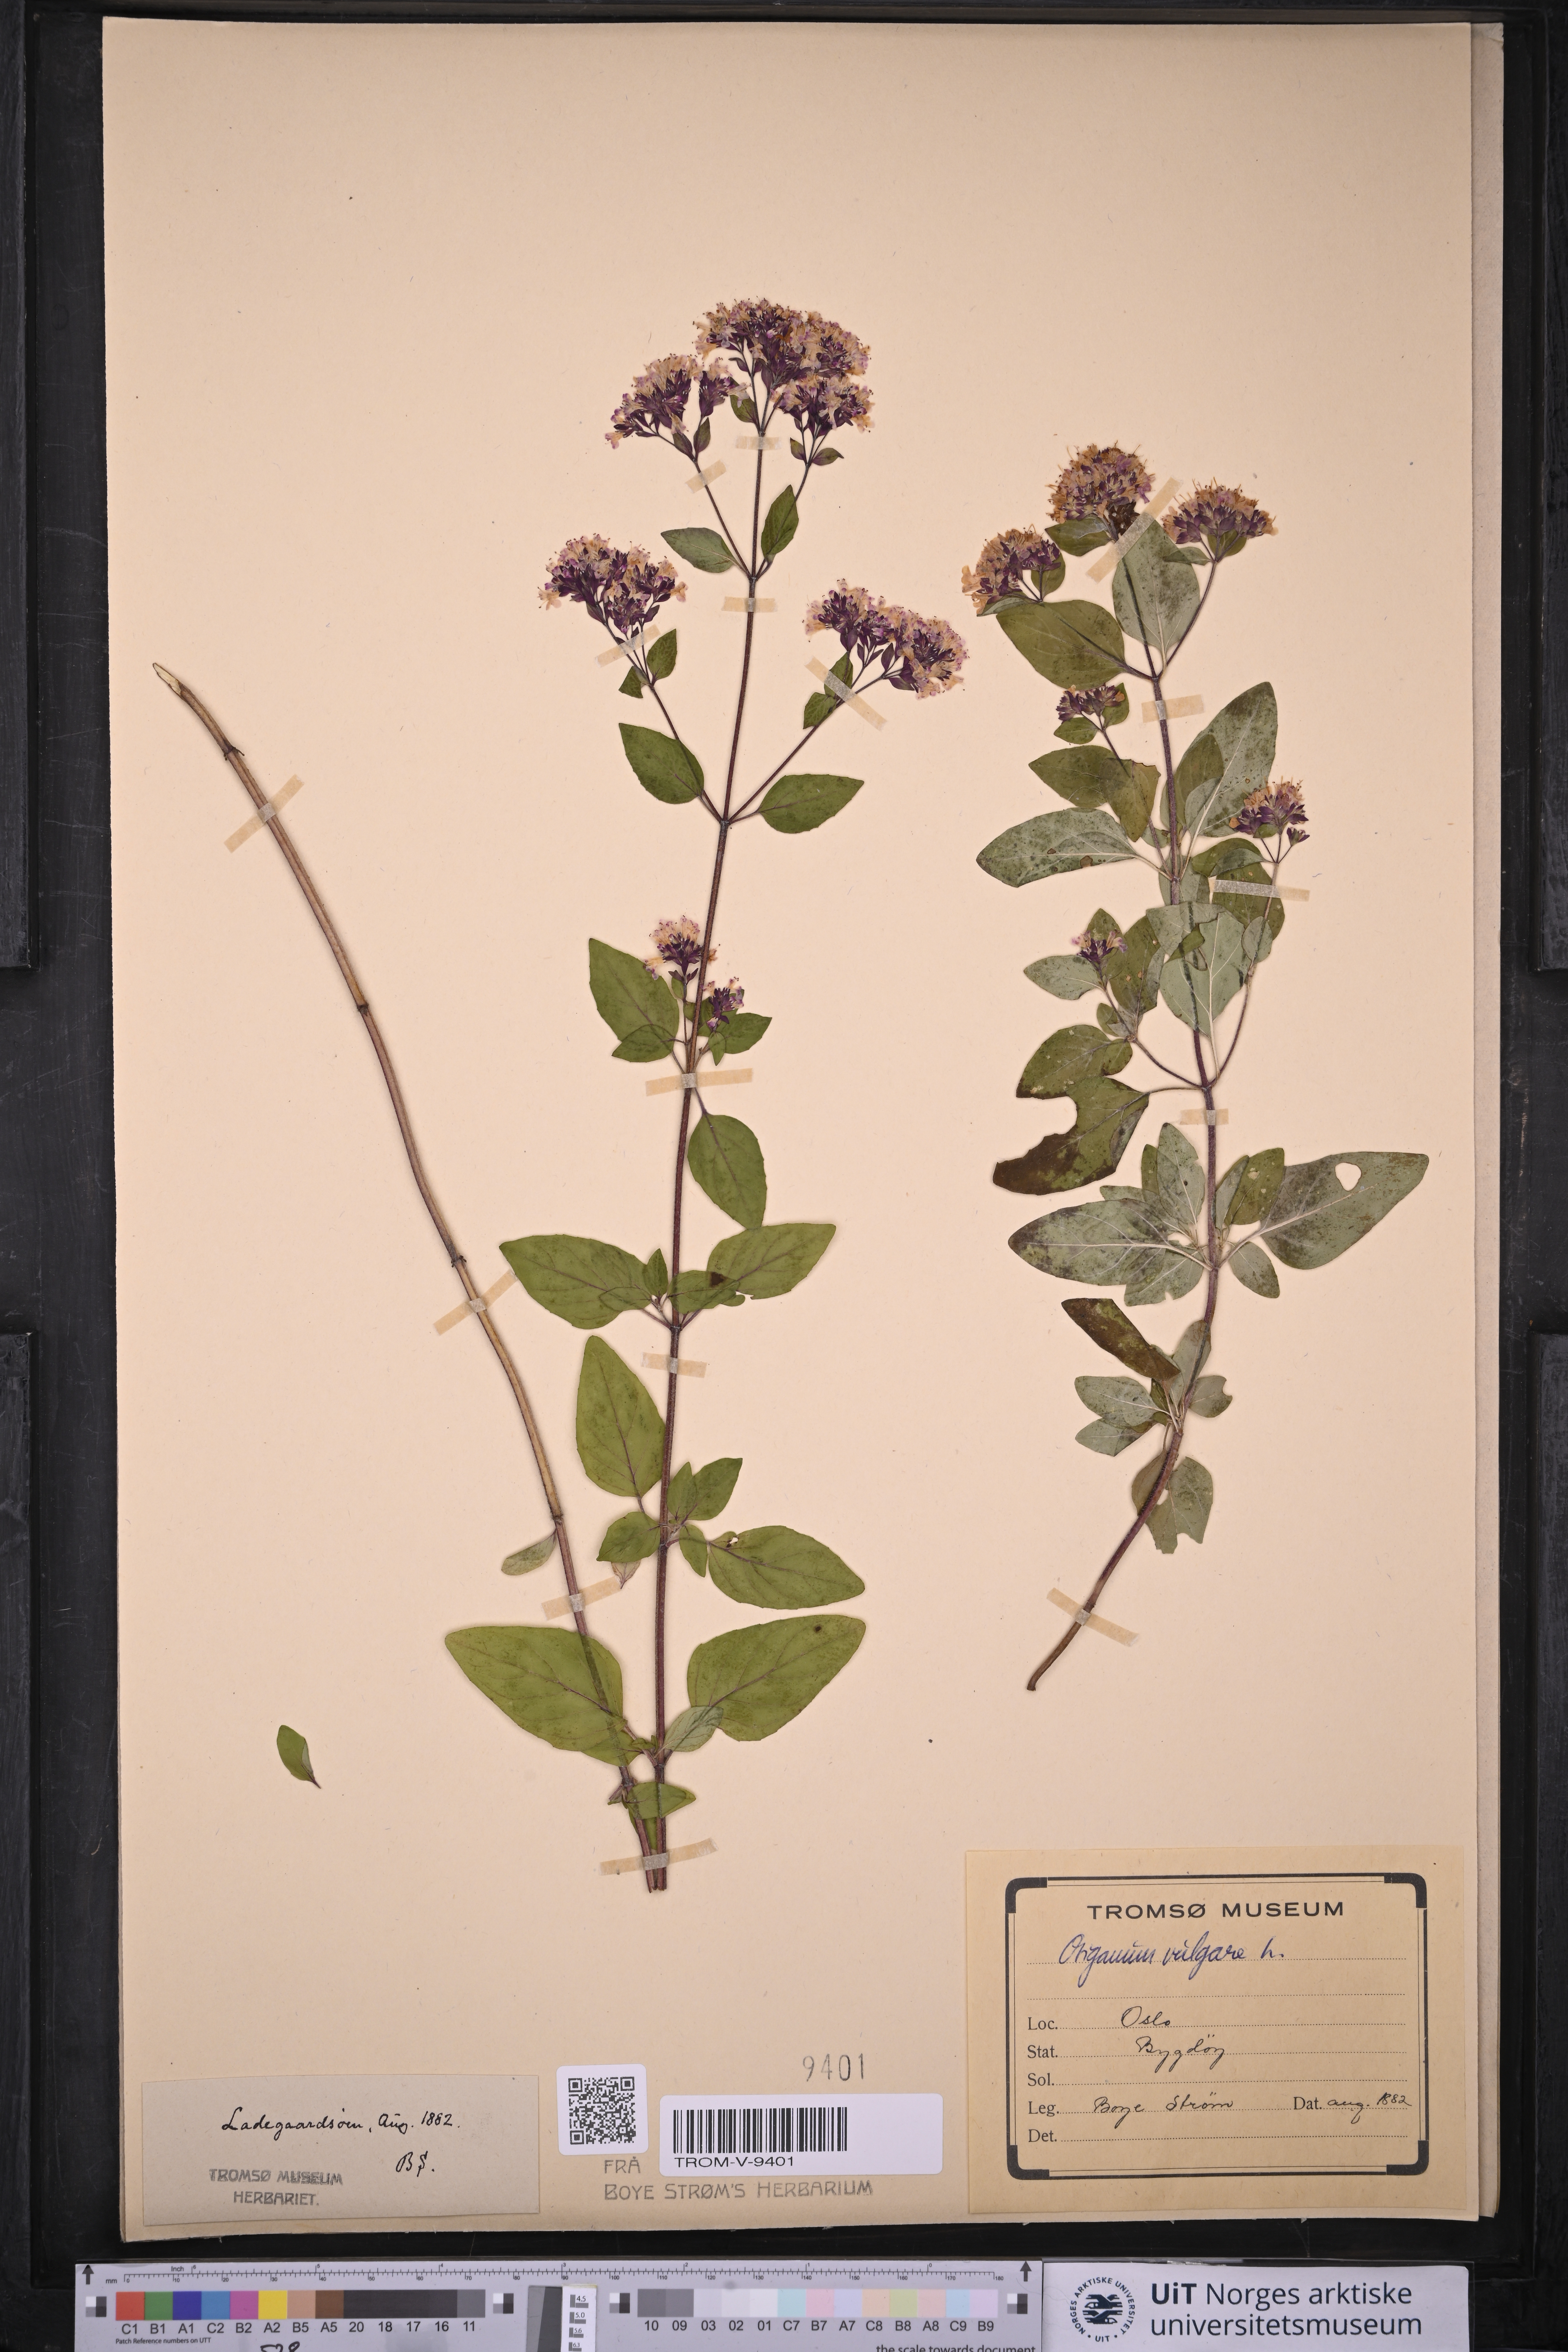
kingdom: Plantae
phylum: Tracheophyta
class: Magnoliopsida
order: Lamiales
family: Lamiaceae
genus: Origanum
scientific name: Origanum vulgare
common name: Wild marjoram
